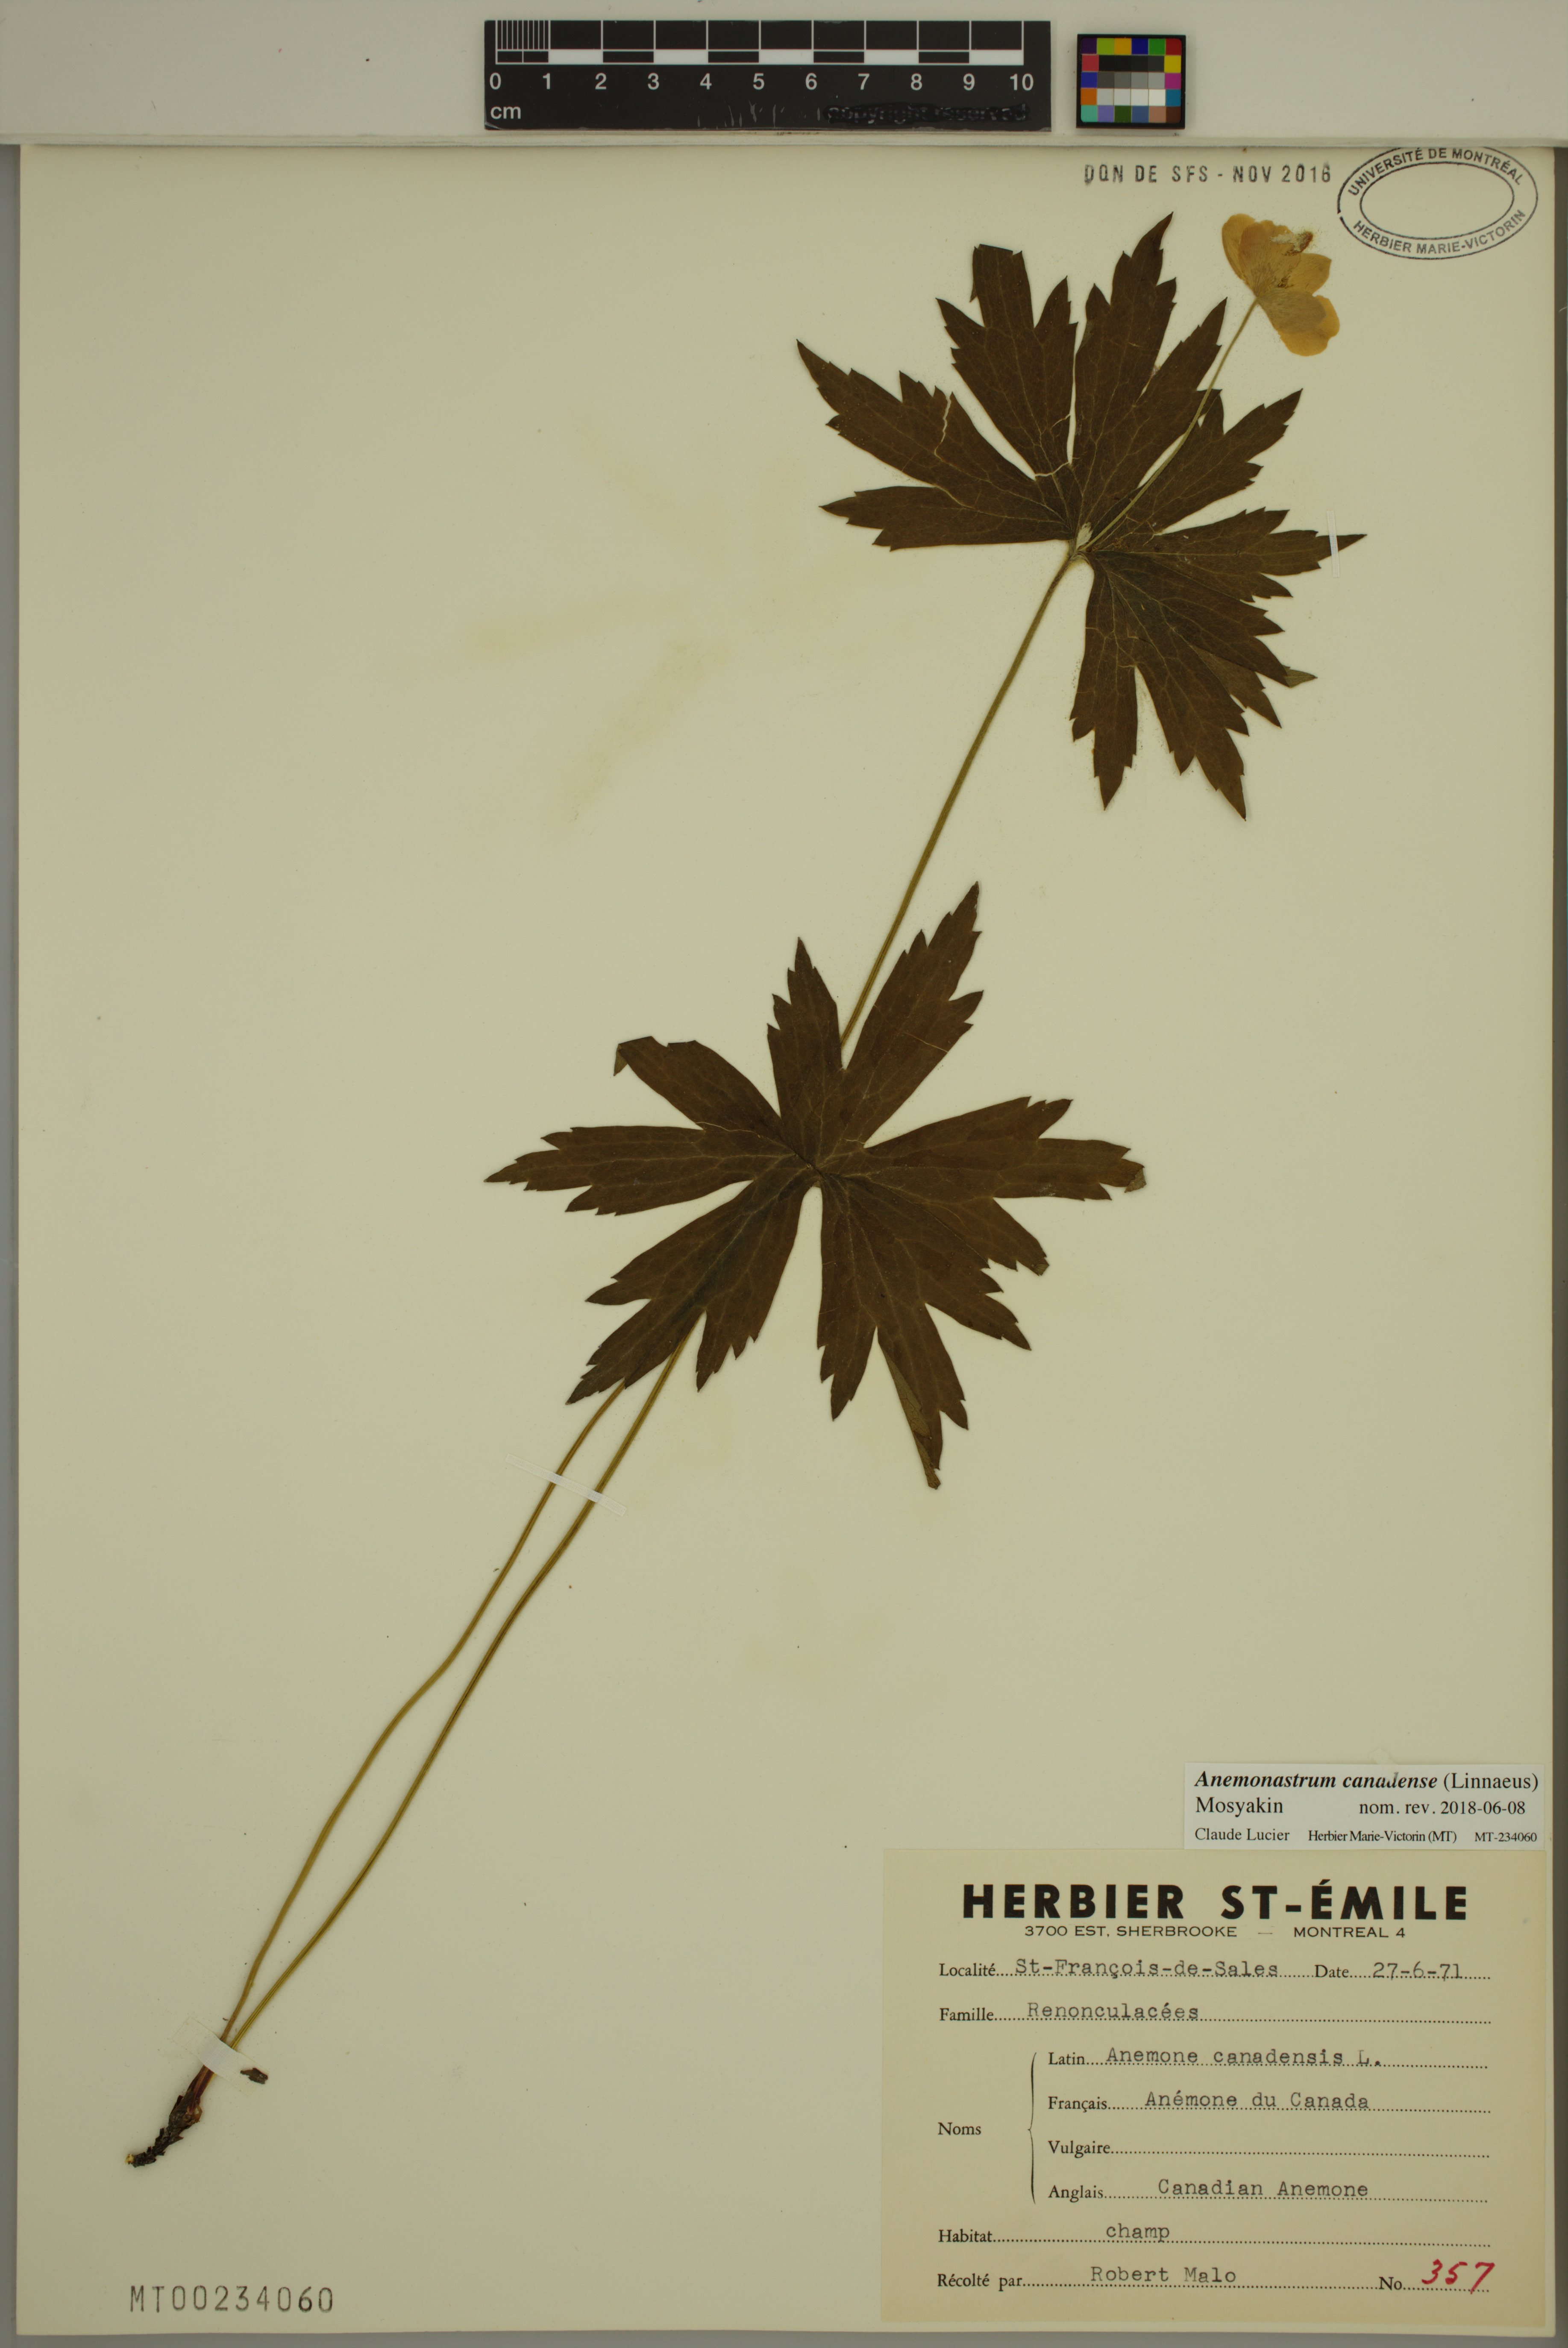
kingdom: Plantae
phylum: Tracheophyta
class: Magnoliopsida
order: Ranunculales
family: Ranunculaceae
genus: Anemonastrum
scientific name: Anemonastrum canadense
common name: Canada anemone
